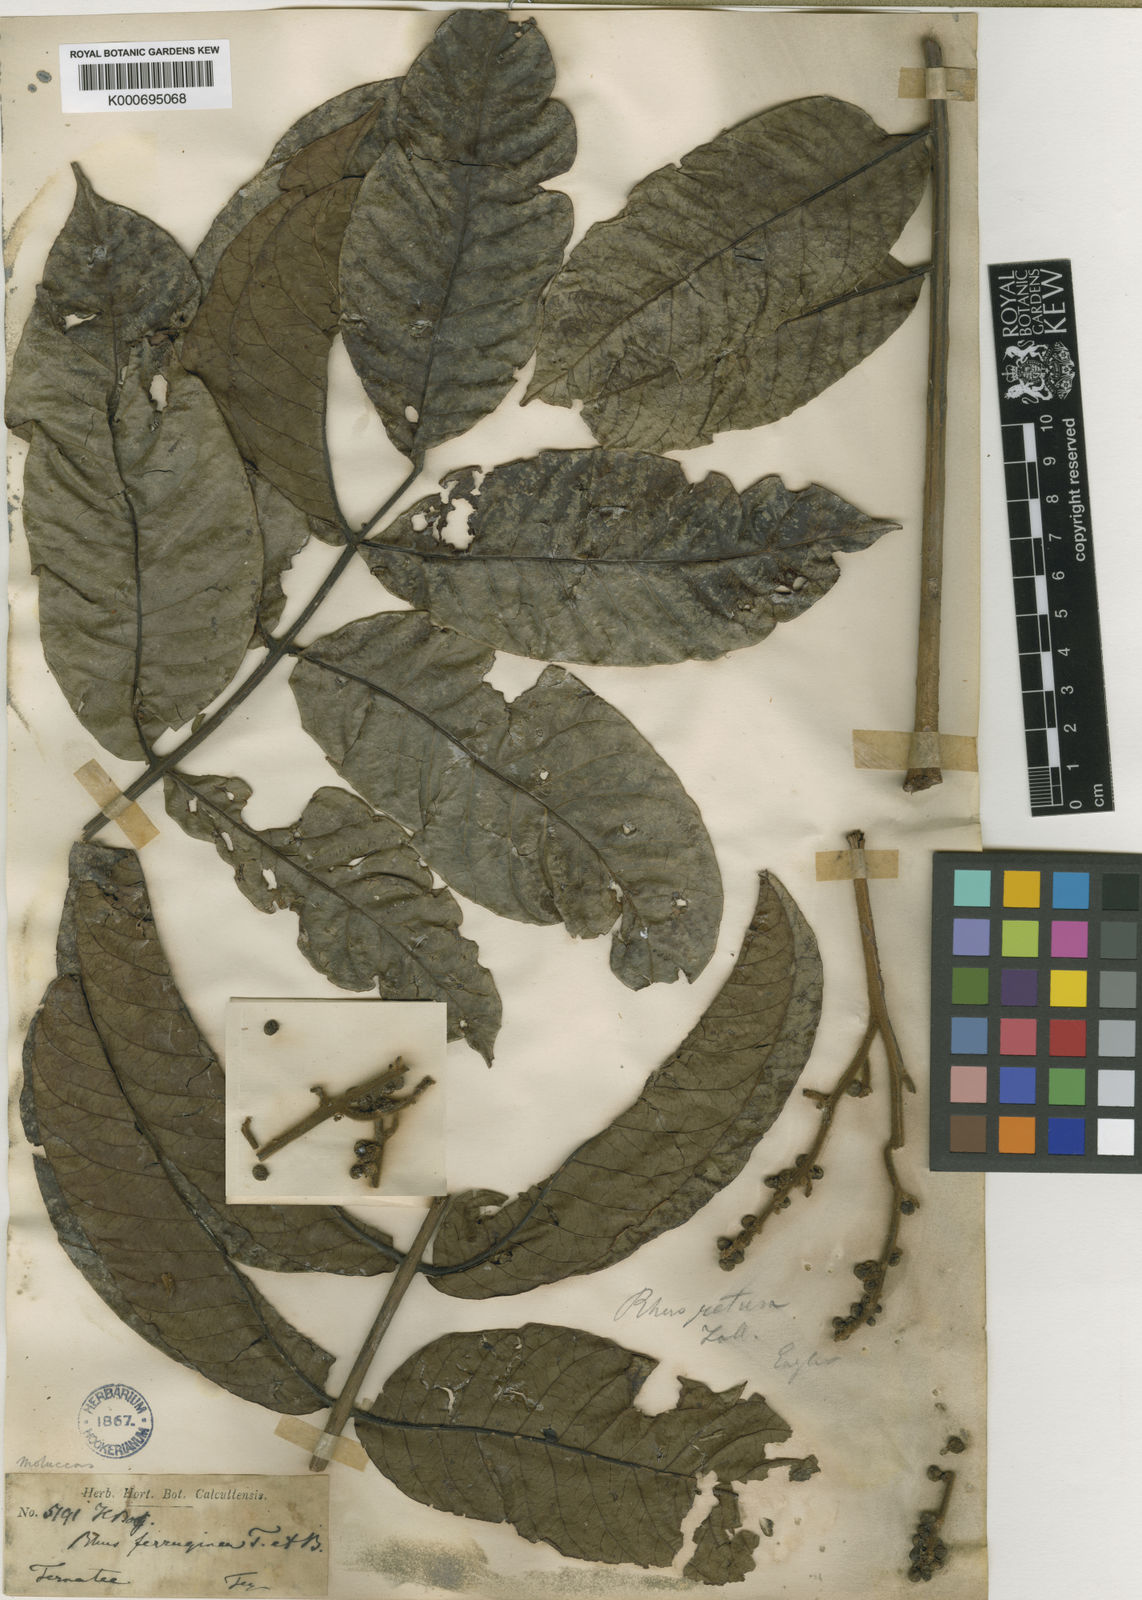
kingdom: Plantae
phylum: Tracheophyta
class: Magnoliopsida
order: Sapindales
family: Anacardiaceae
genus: Melanococca
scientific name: Melanococca tomentosa
